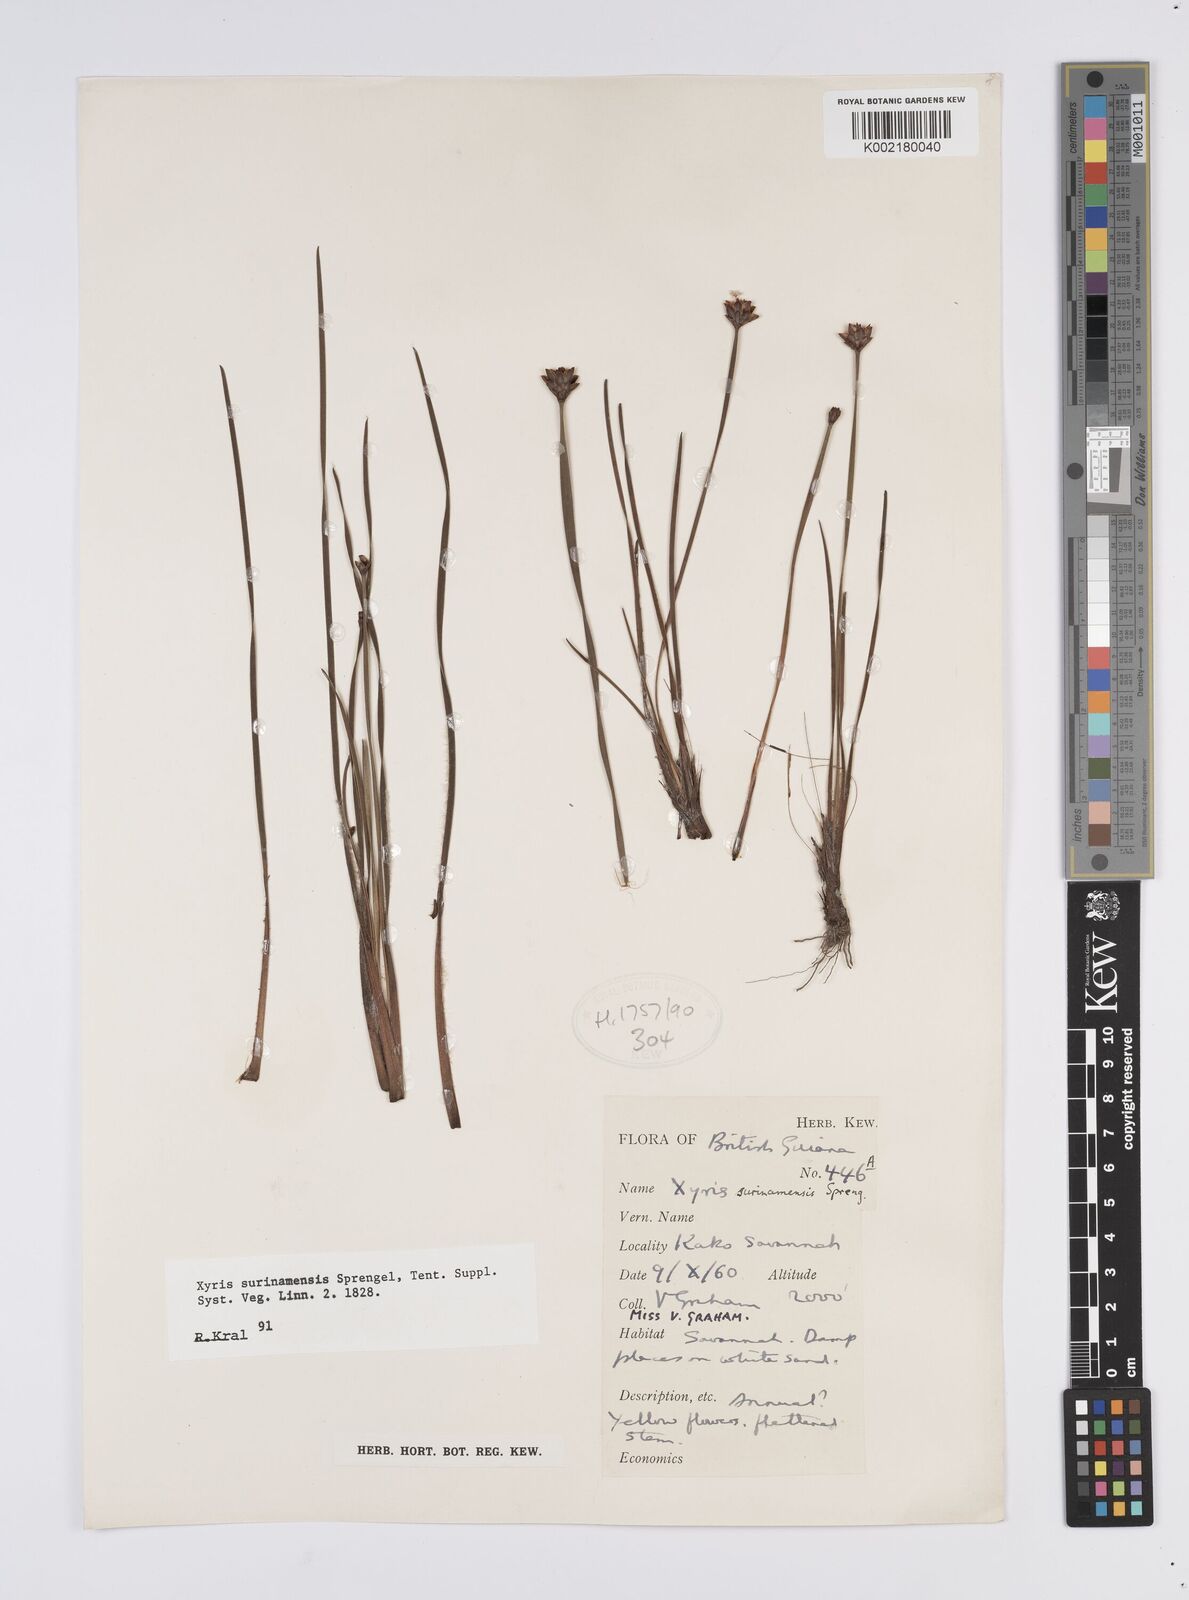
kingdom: Plantae
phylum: Tracheophyta
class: Liliopsida
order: Poales
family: Xyridaceae
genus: Xyris
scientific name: Xyris surinamensis
